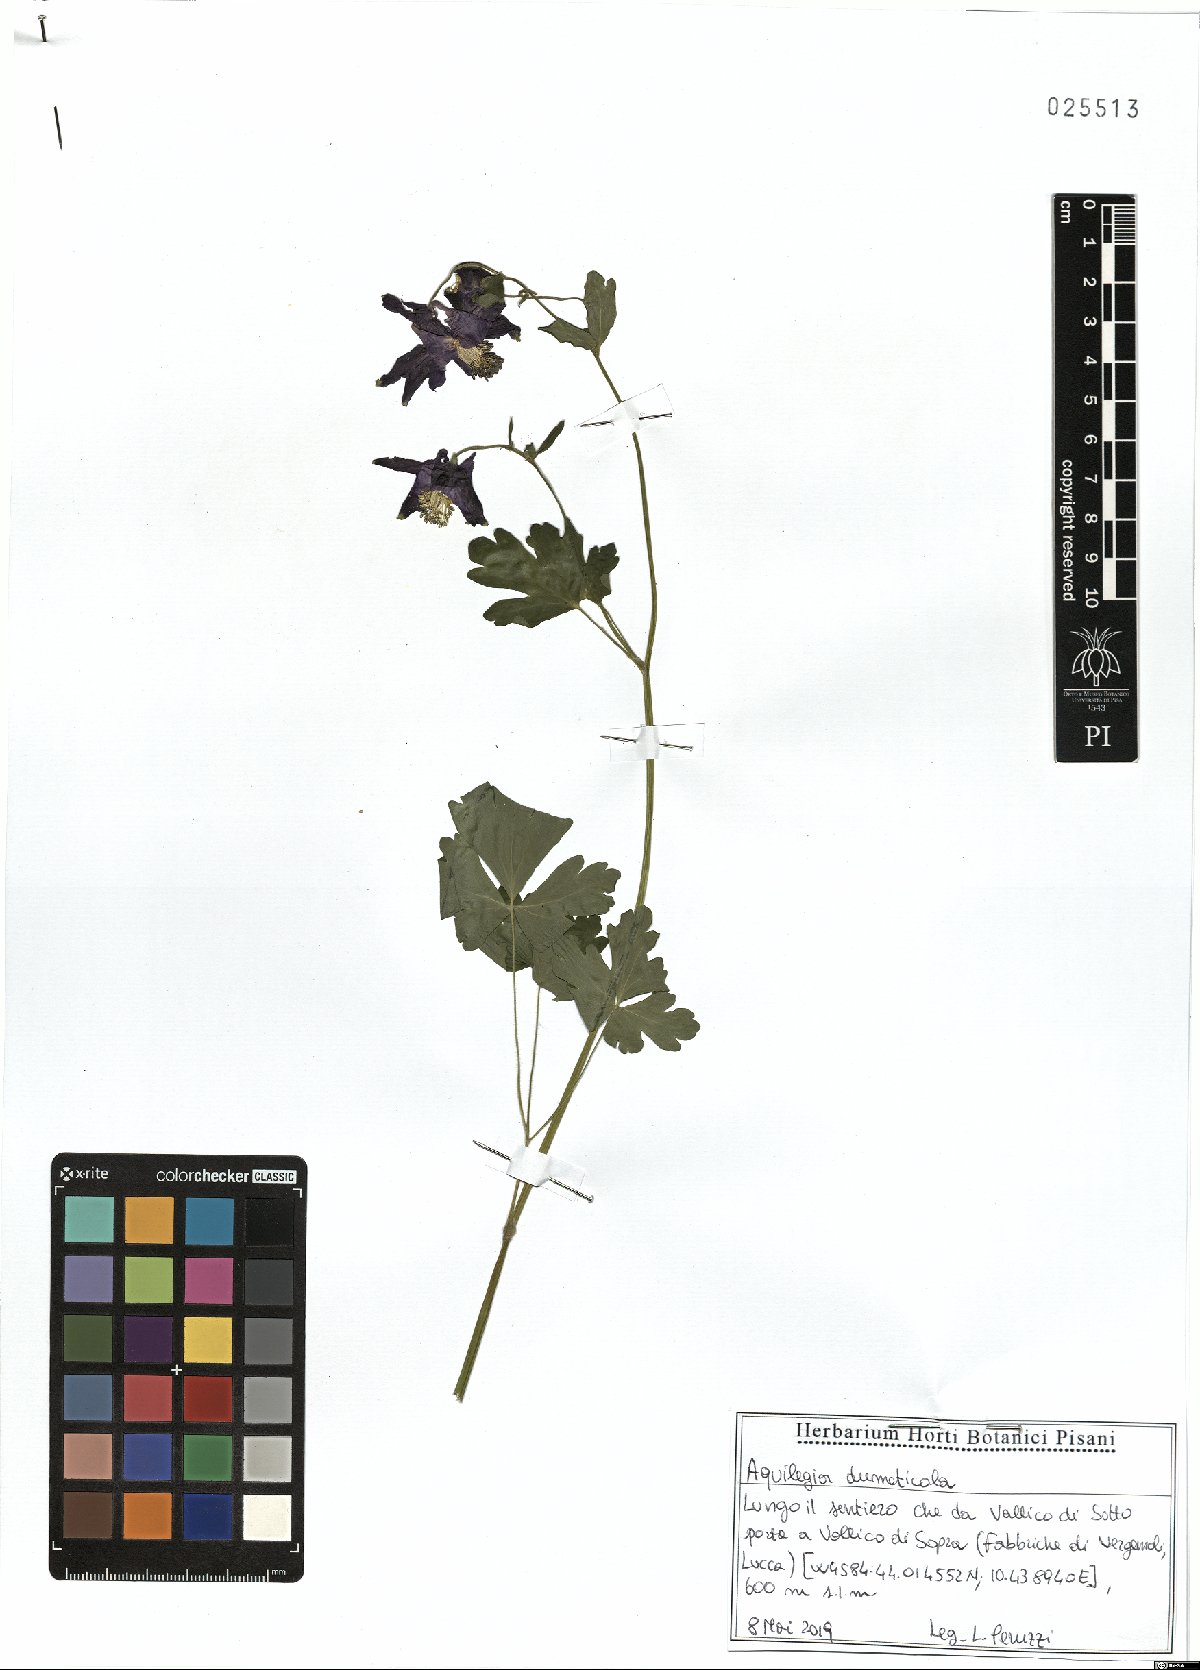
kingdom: Plantae
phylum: Tracheophyta
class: Magnoliopsida
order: Ranunculales
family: Ranunculaceae
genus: Aquilegia
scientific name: Aquilegia dumeticola
